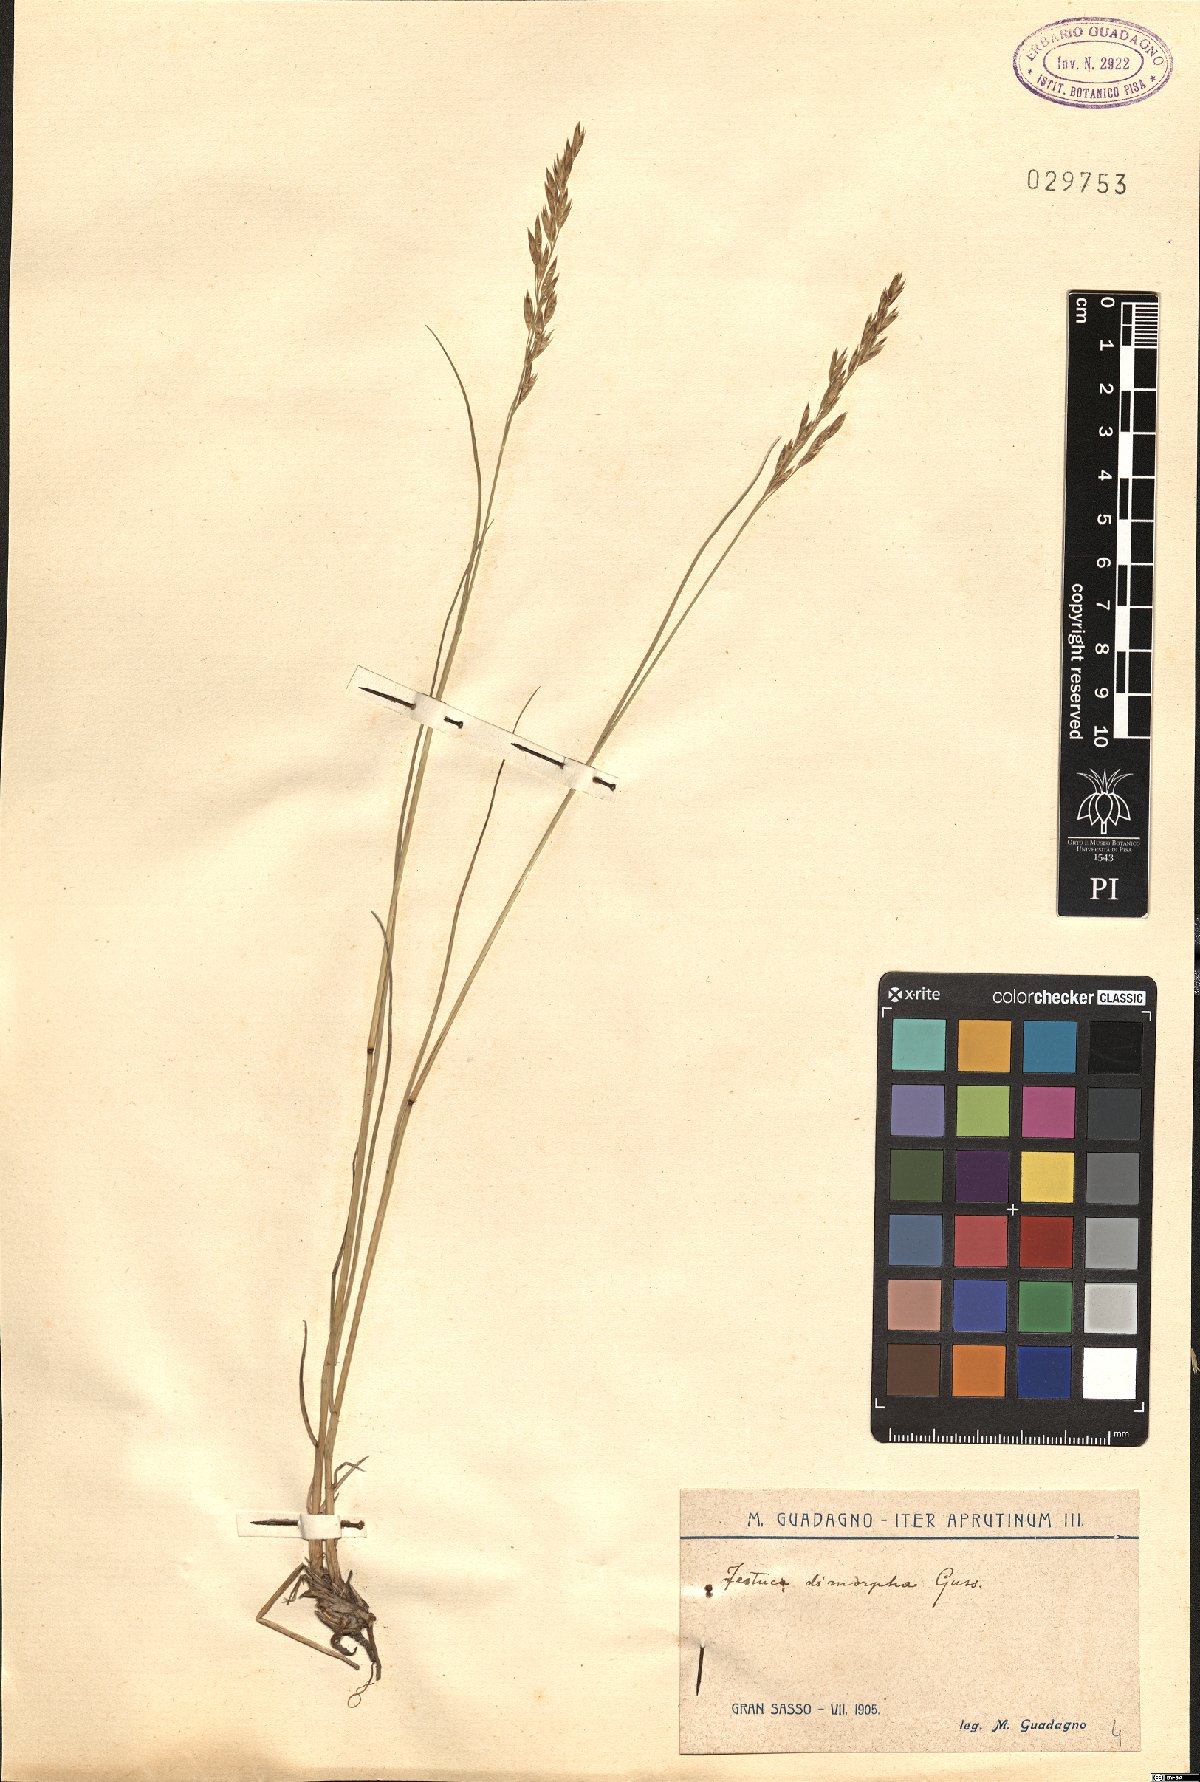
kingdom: Plantae
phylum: Tracheophyta
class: Liliopsida
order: Poales
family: Poaceae
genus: Festuca
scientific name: Festuca dimorpha
